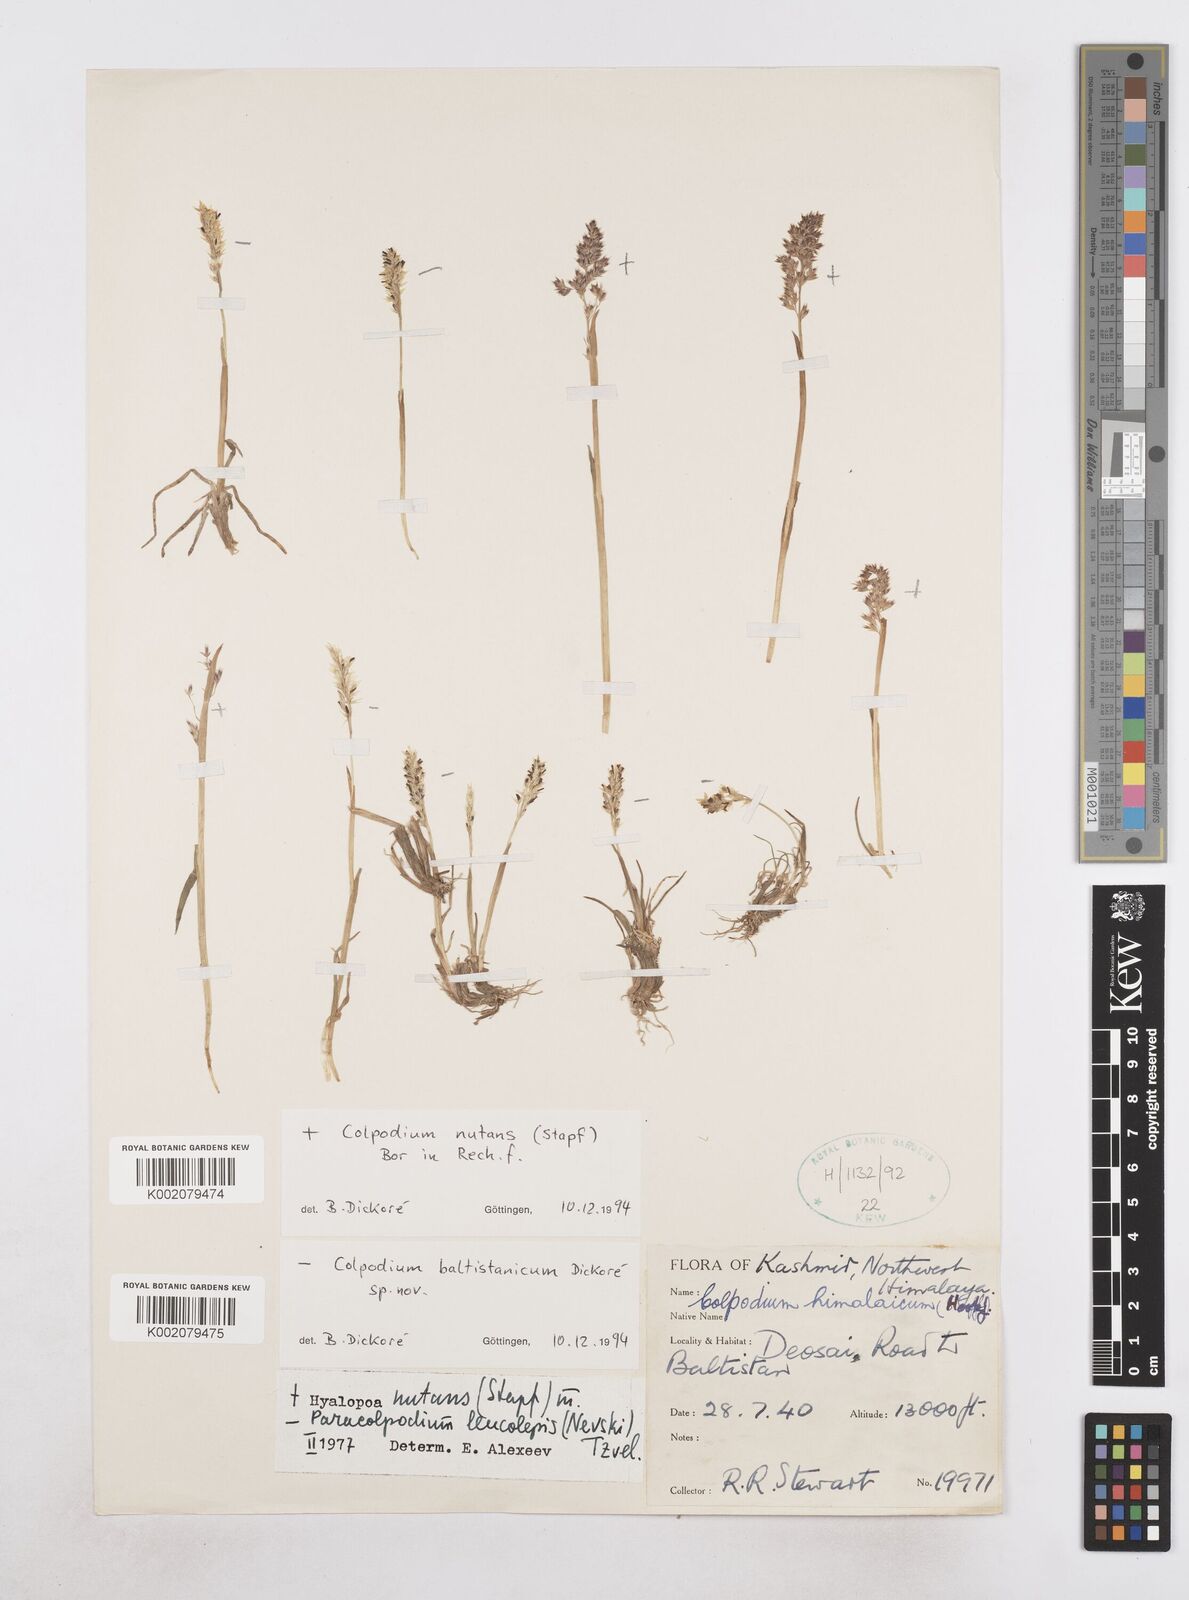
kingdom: Plantae
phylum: Tracheophyta
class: Liliopsida
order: Poales
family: Poaceae
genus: Paracolpodium
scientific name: Paracolpodium altaicum
